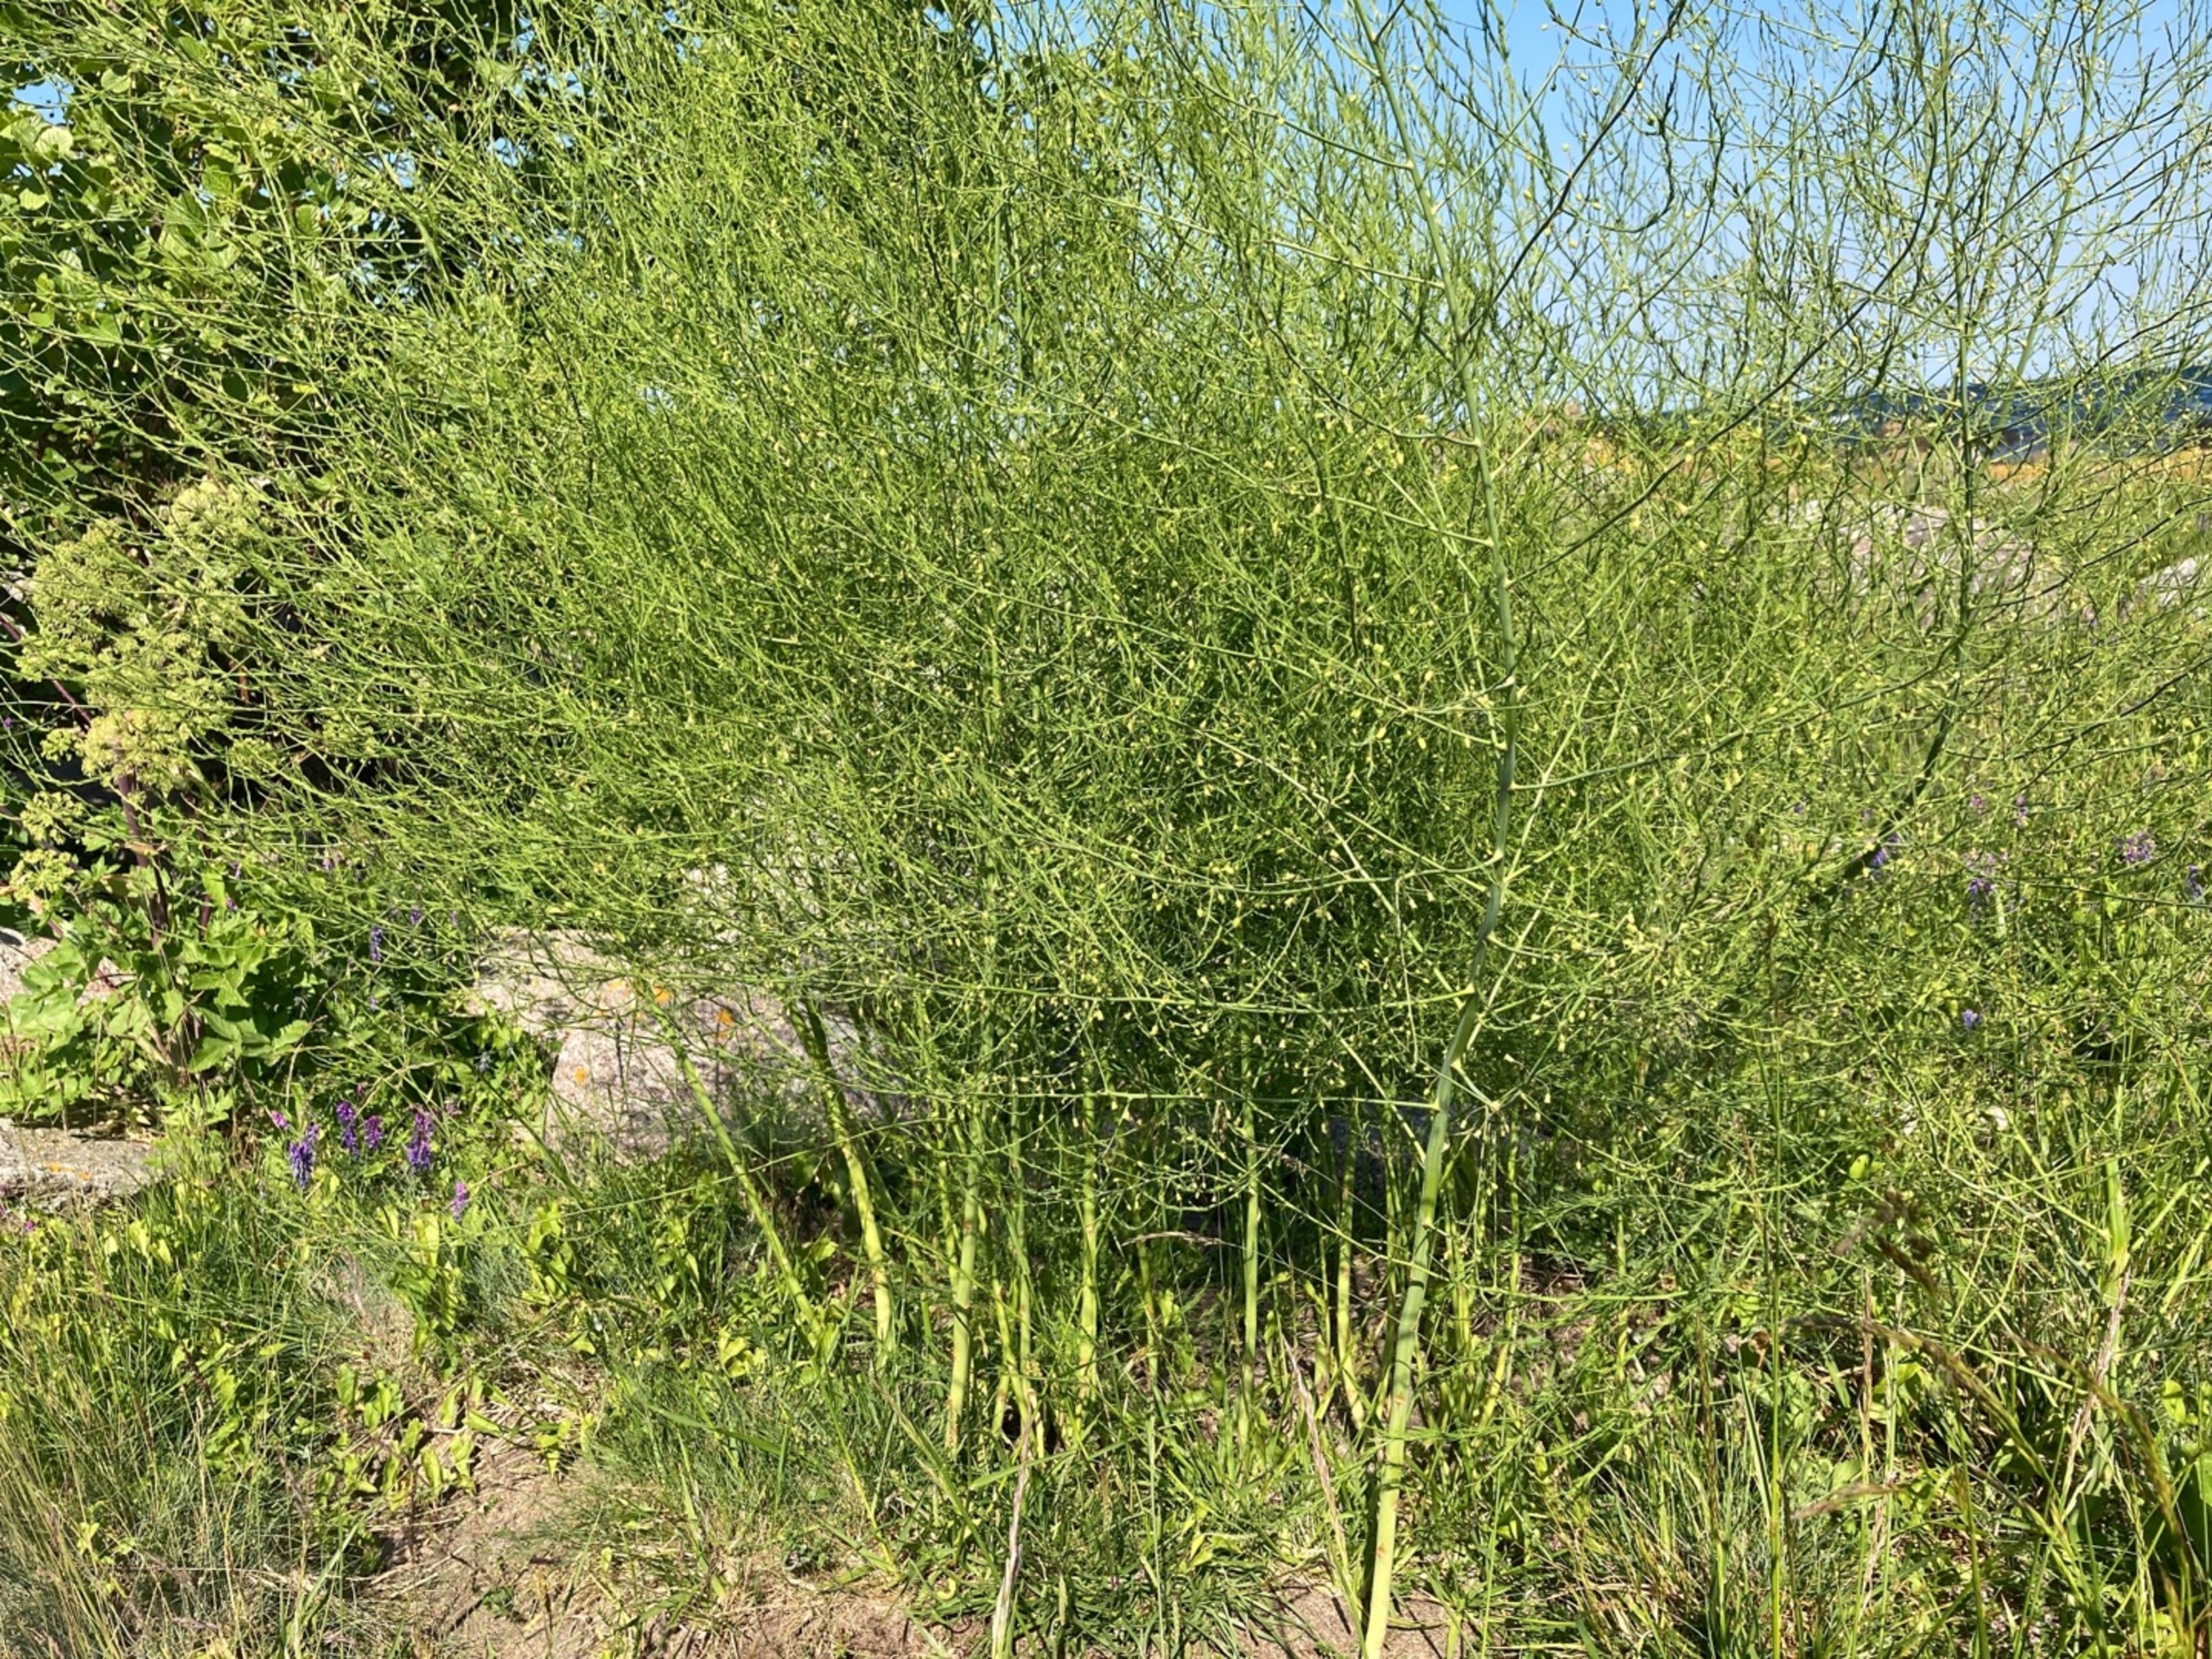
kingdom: Plantae
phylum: Tracheophyta
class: Liliopsida
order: Asparagales
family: Asparagaceae
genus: Asparagus
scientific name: Asparagus officinalis
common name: Asparges
